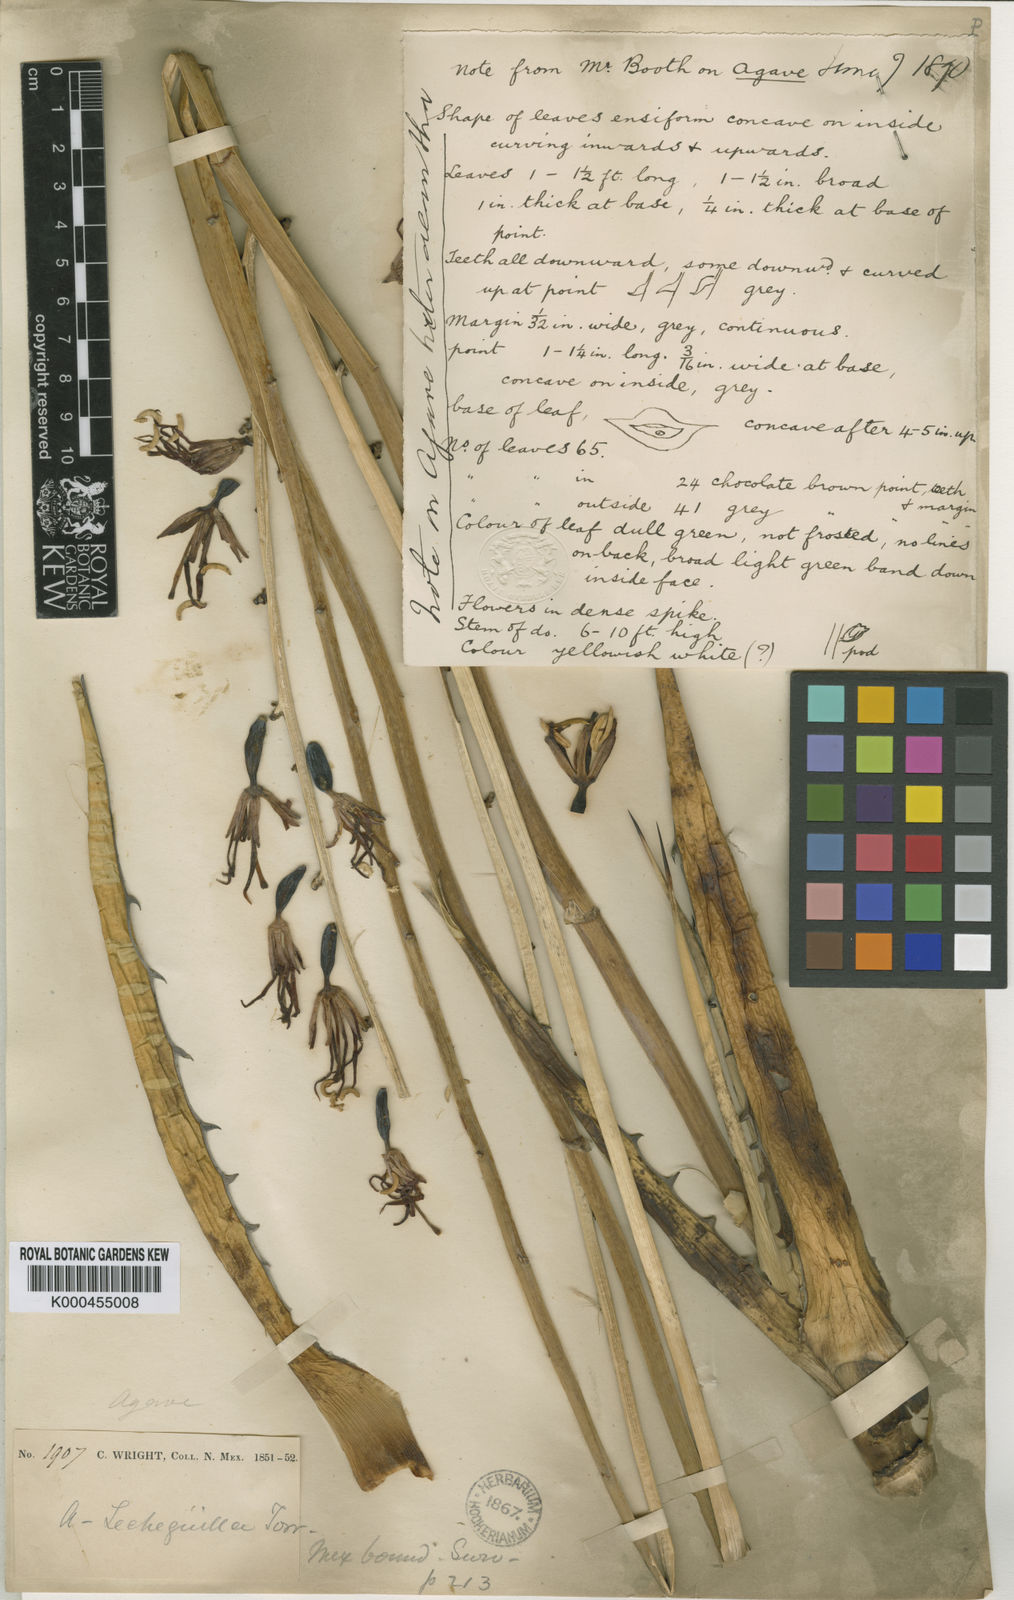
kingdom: Plantae
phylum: Tracheophyta
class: Liliopsida
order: Asparagales
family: Asparagaceae
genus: Agave
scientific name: Agave lechuguilla
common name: Lecheguilla agave
